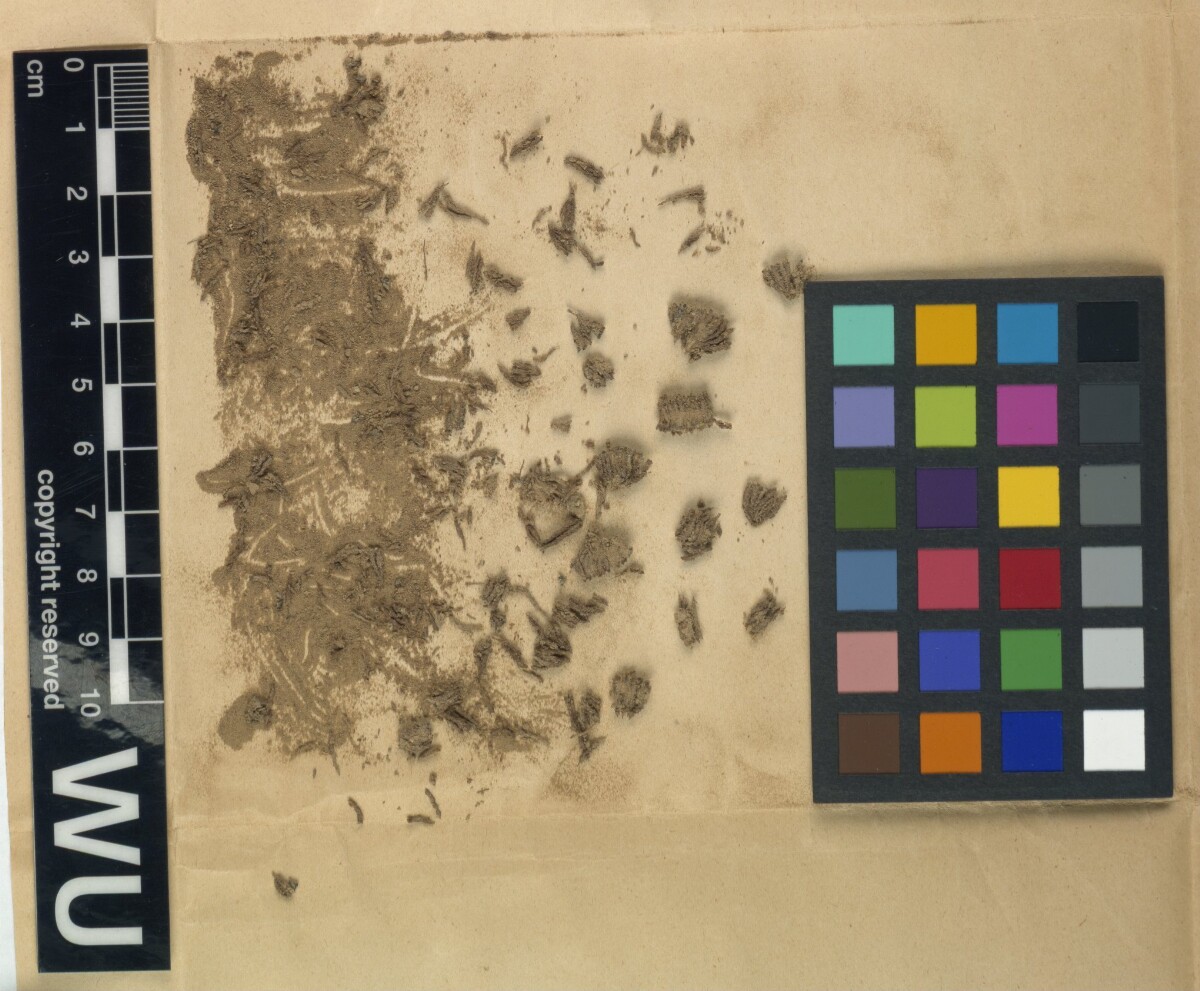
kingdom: Plantae
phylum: Bryophyta
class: Bryopsida
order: Grimmiales
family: Grimmiaceae
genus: Grimmia
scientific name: Grimmia capillata
